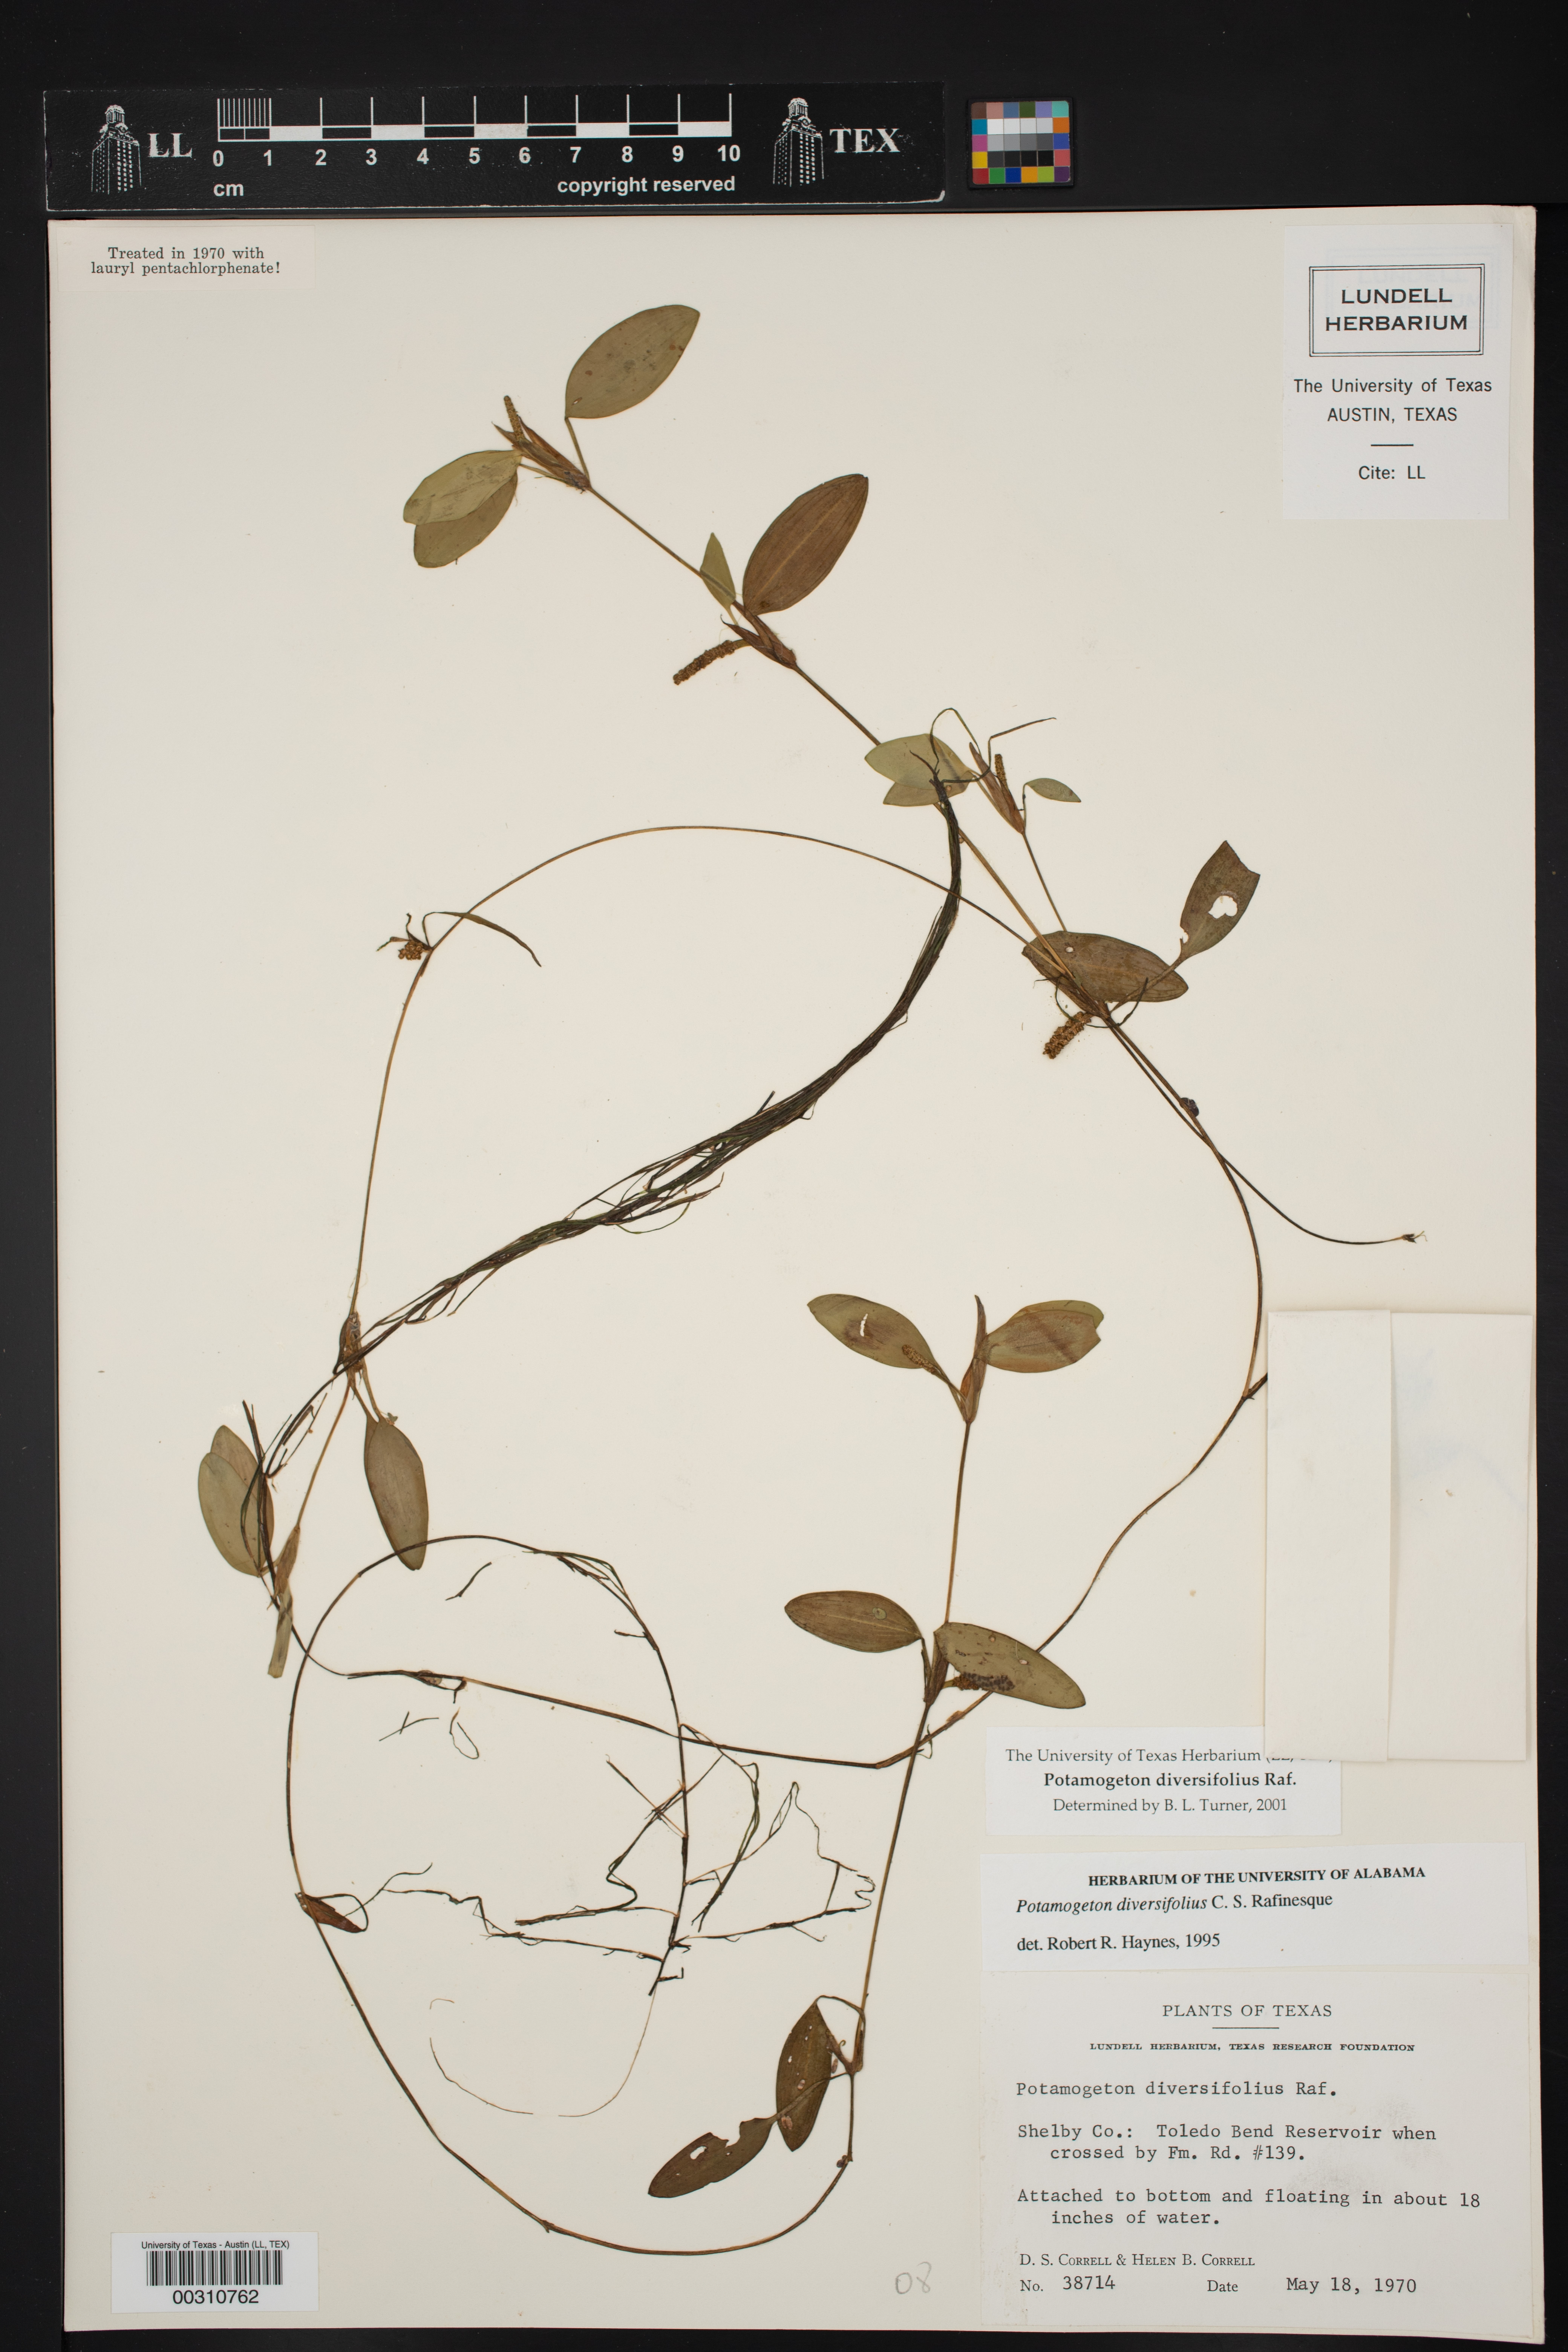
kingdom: Plantae
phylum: Tracheophyta
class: Liliopsida
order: Alismatales
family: Potamogetonaceae
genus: Potamogeton
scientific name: Potamogeton diversifolius
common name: Water-thread pondweed
